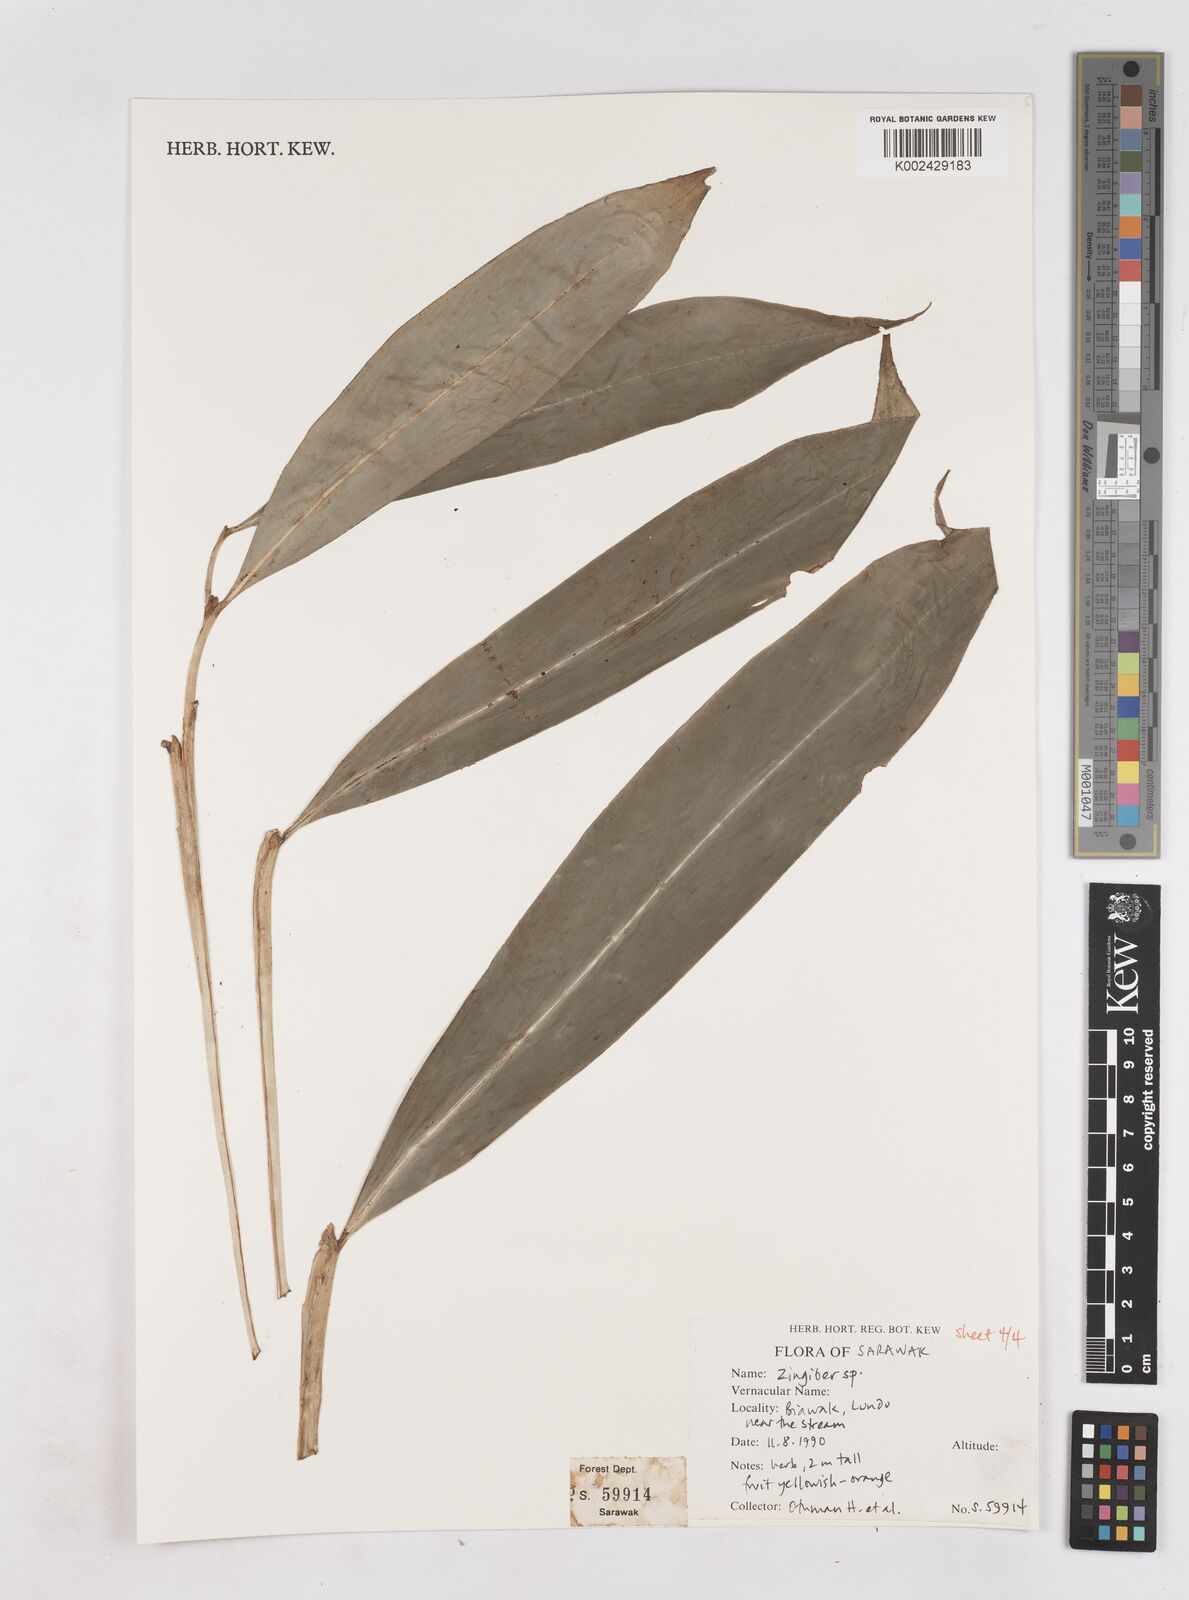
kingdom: Plantae
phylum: Tracheophyta
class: Liliopsida
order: Zingiberales
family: Zingiberaceae
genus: Zingiber
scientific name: Zingiber
